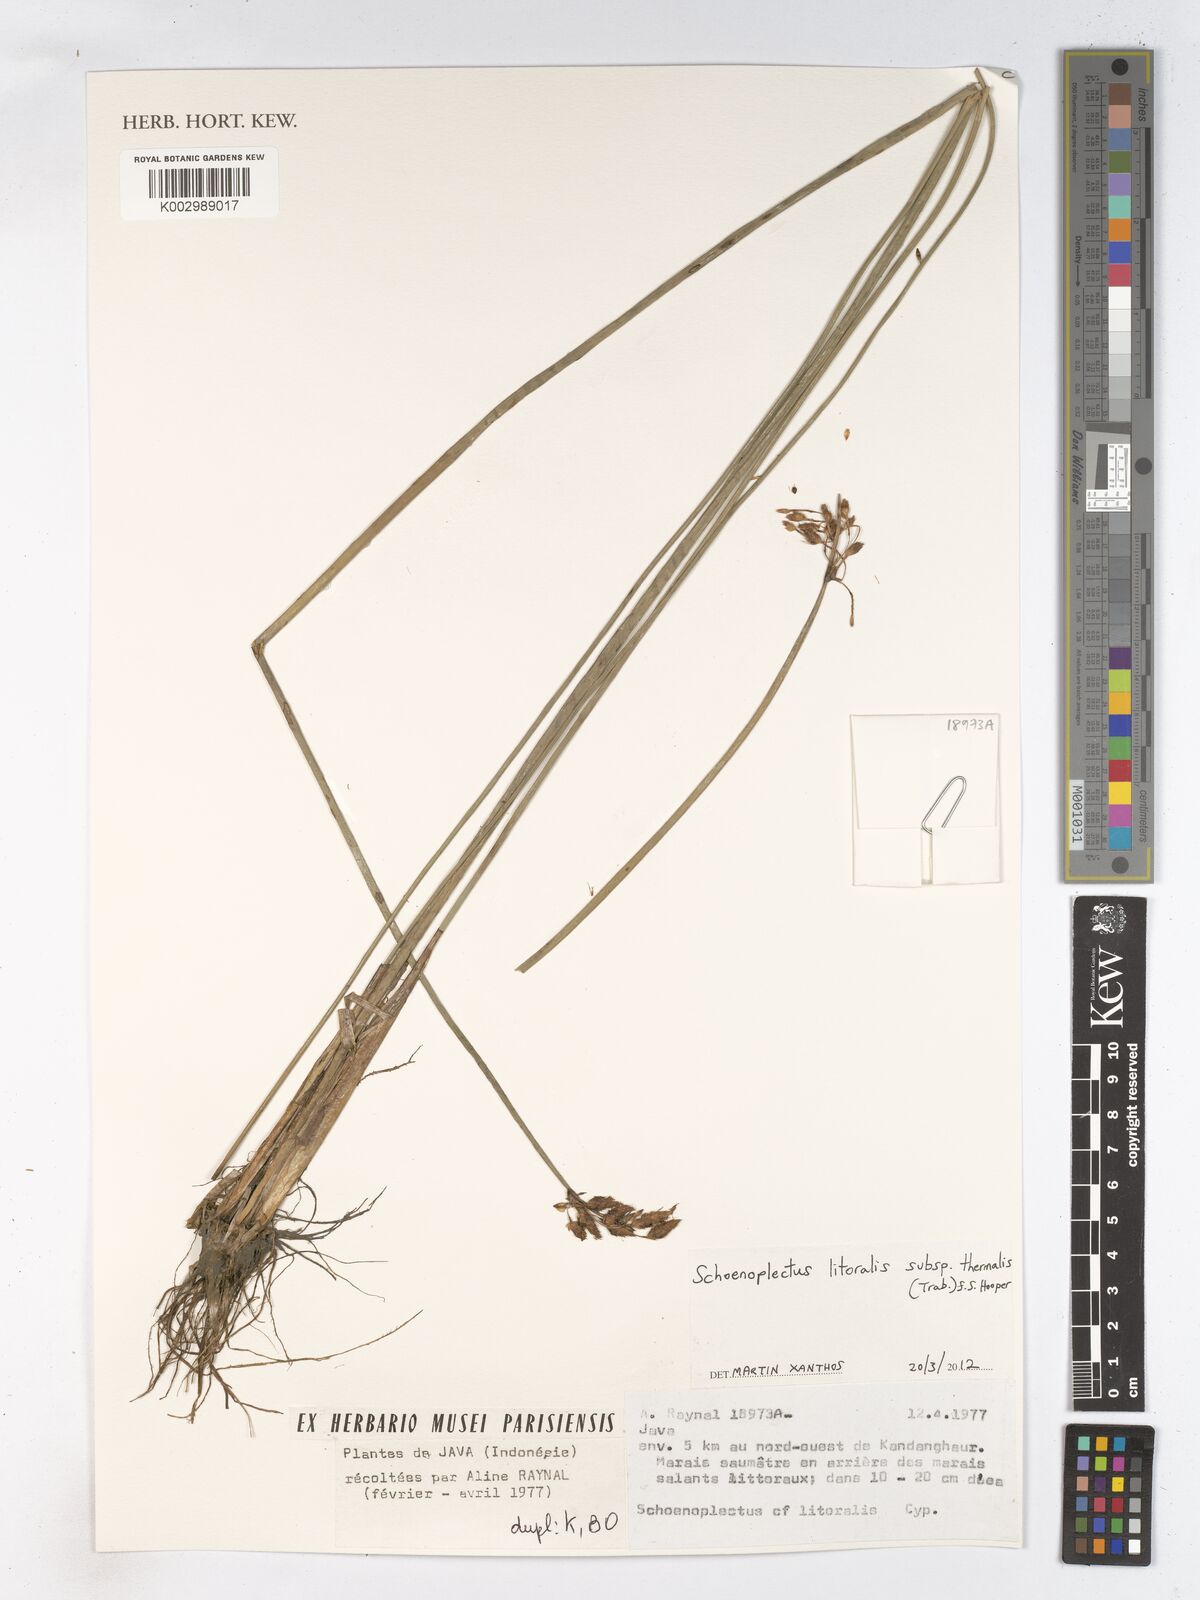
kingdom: Plantae
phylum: Tracheophyta
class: Liliopsida
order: Poales
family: Cyperaceae
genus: Schoenoplectus
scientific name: Schoenoplectus litoralis
